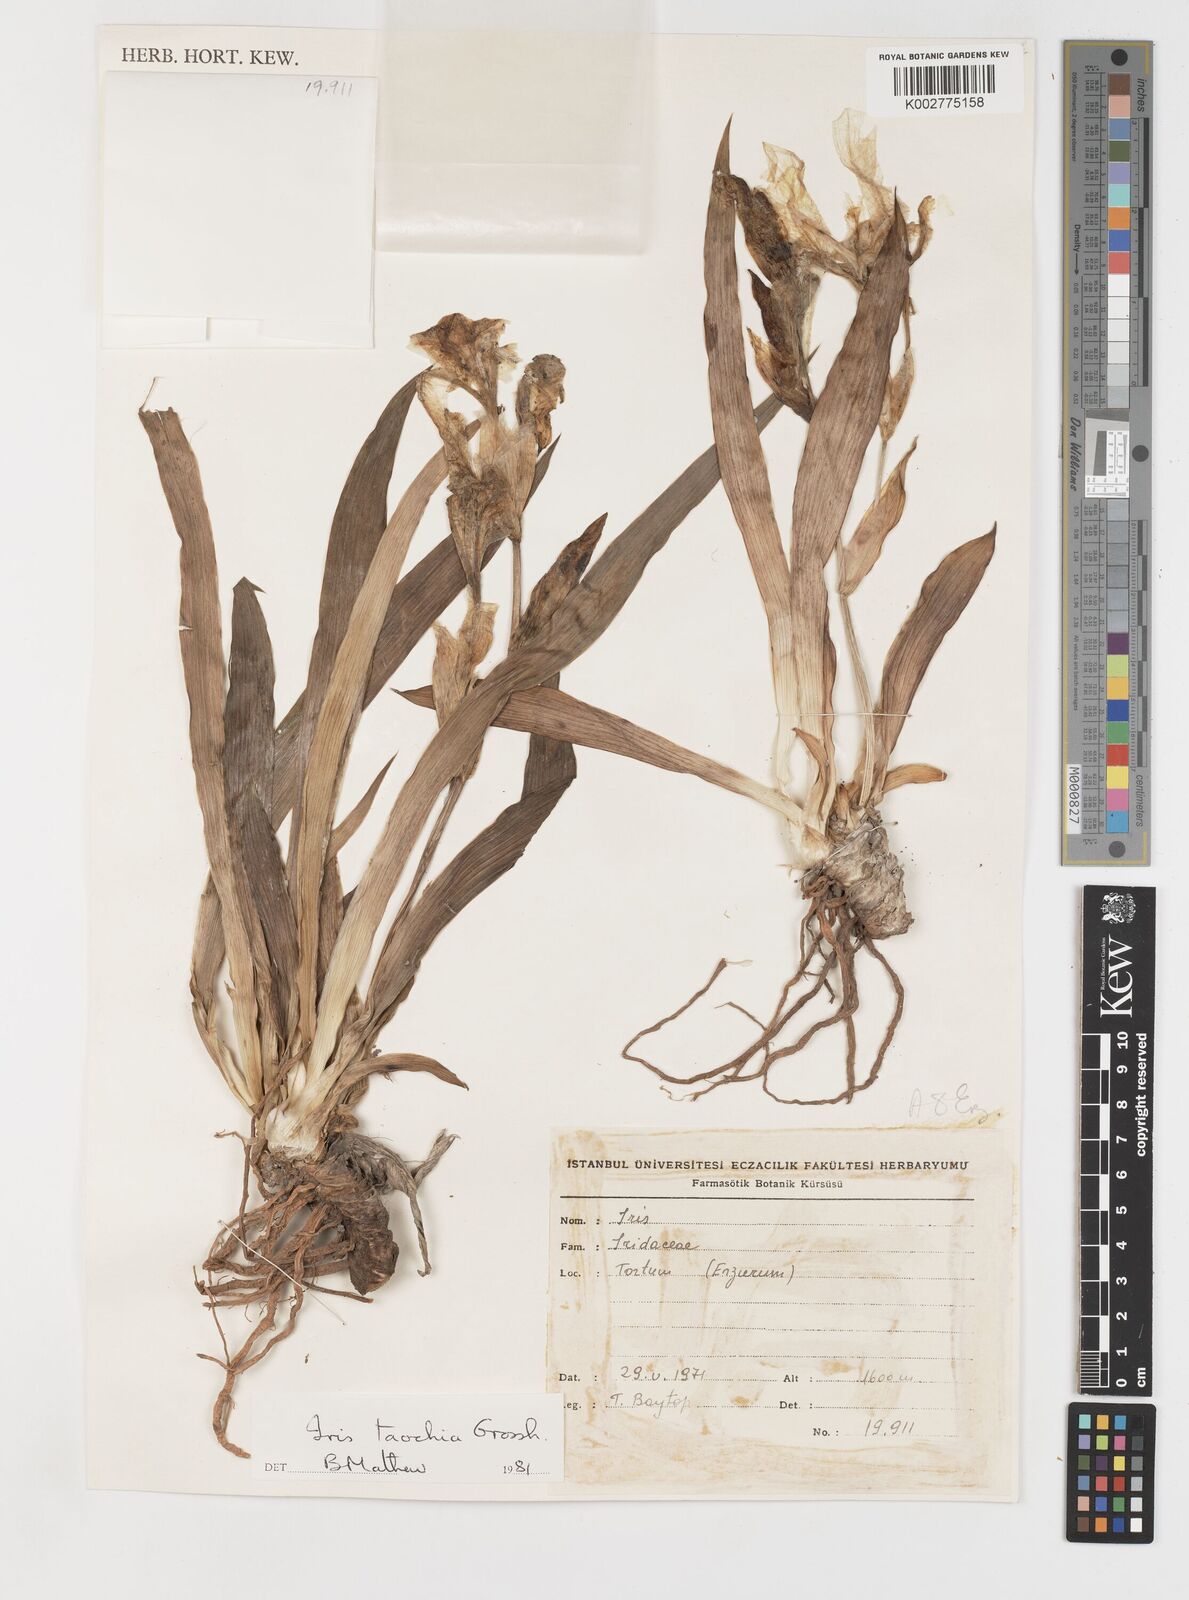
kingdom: Plantae
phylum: Tracheophyta
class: Liliopsida
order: Asparagales
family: Iridaceae
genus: Iris
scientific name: Iris taochia
